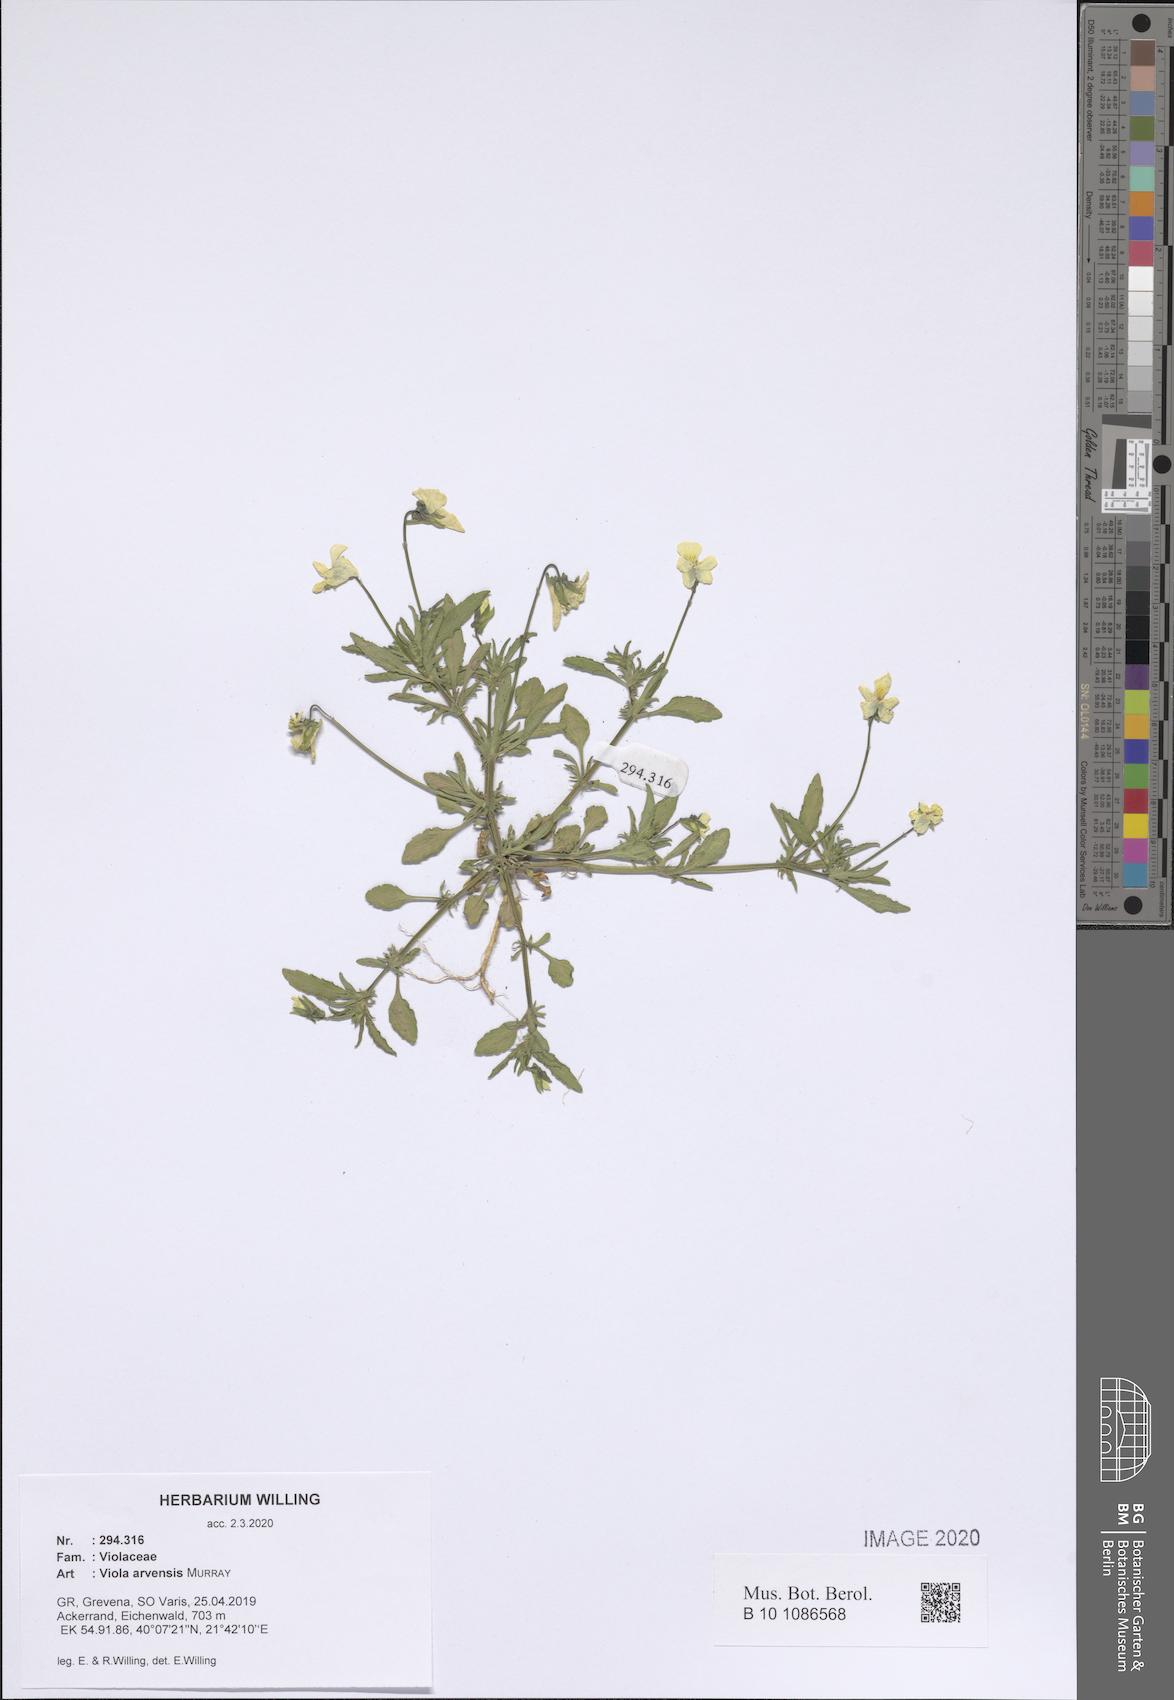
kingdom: Plantae
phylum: Tracheophyta
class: Magnoliopsida
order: Malpighiales
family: Violaceae
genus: Viola
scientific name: Viola arvensis
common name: Field pansy
